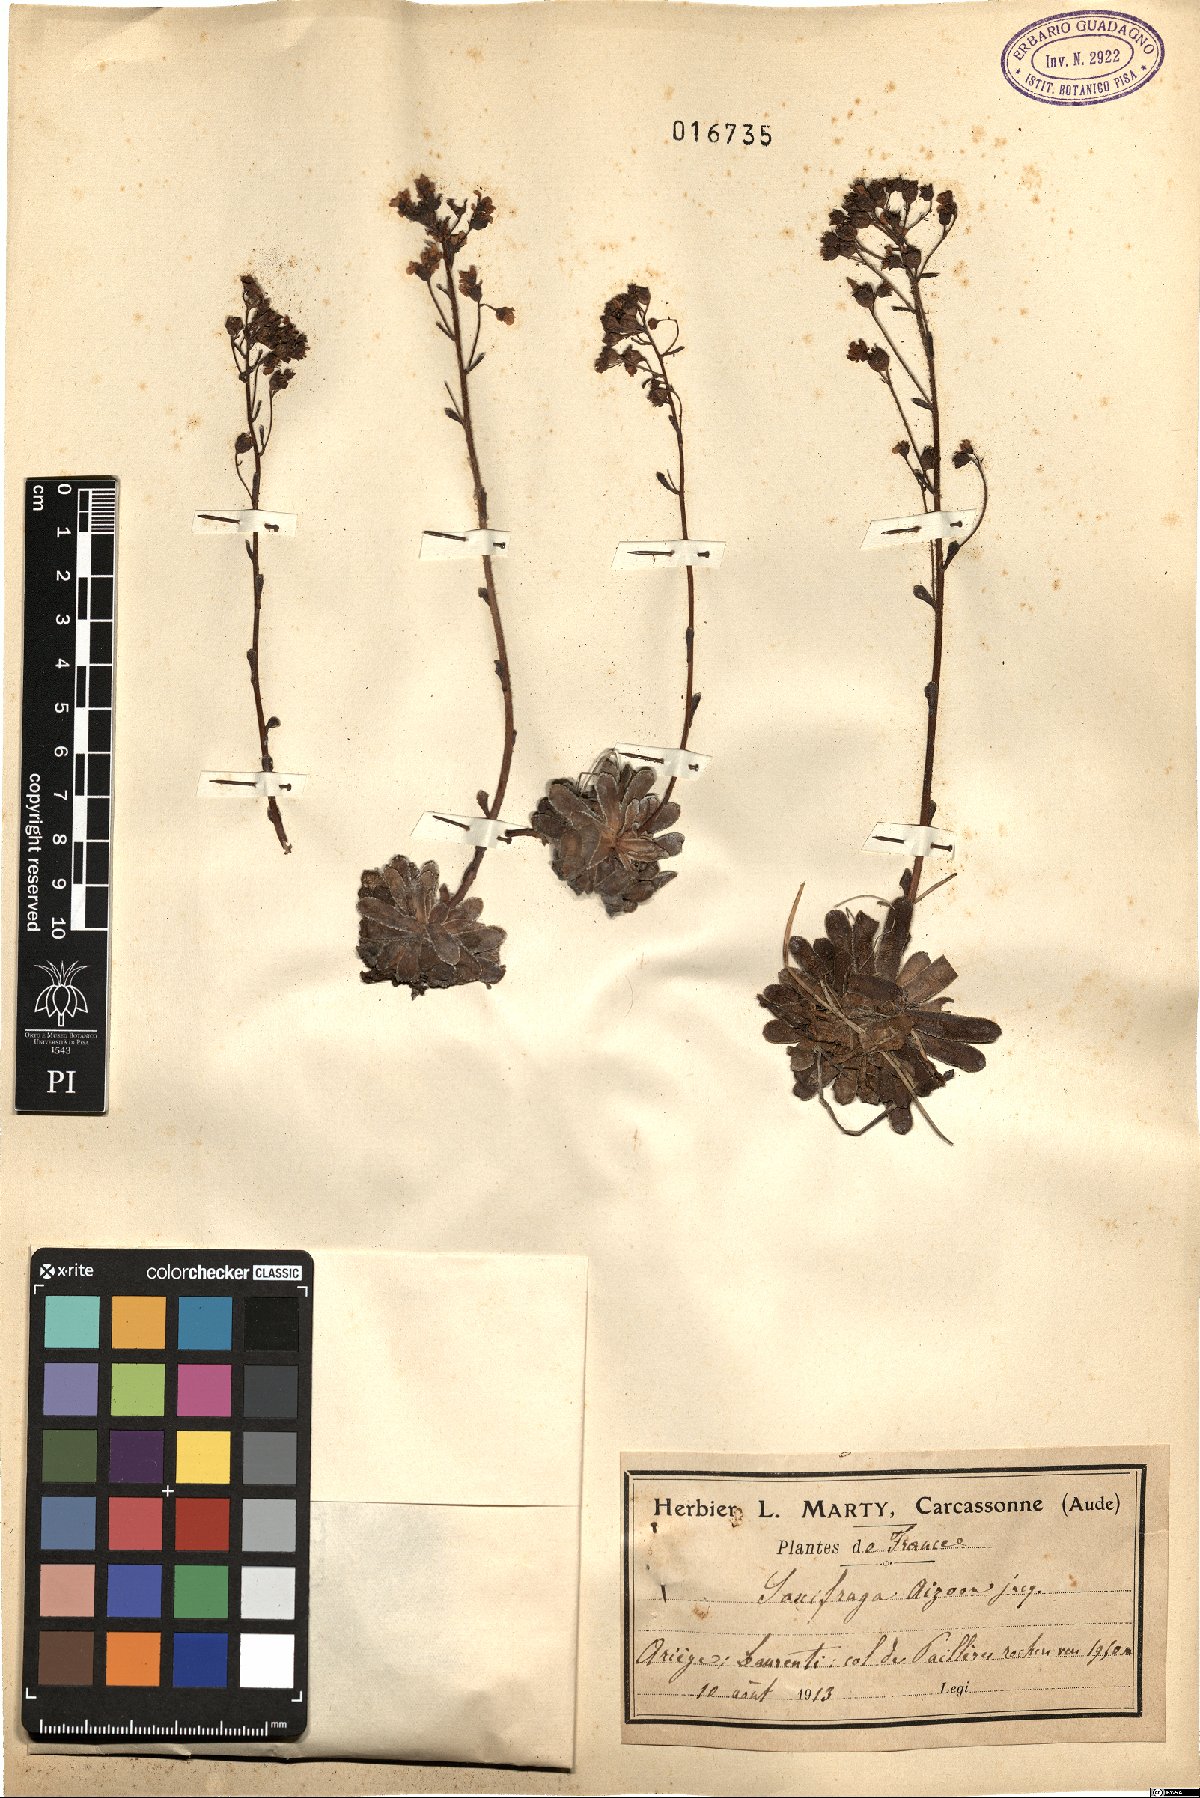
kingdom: Plantae
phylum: Tracheophyta
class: Magnoliopsida
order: Saxifragales
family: Saxifragaceae
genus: Saxifraga
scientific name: Saxifraga paniculata
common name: Livelong saxifrage
